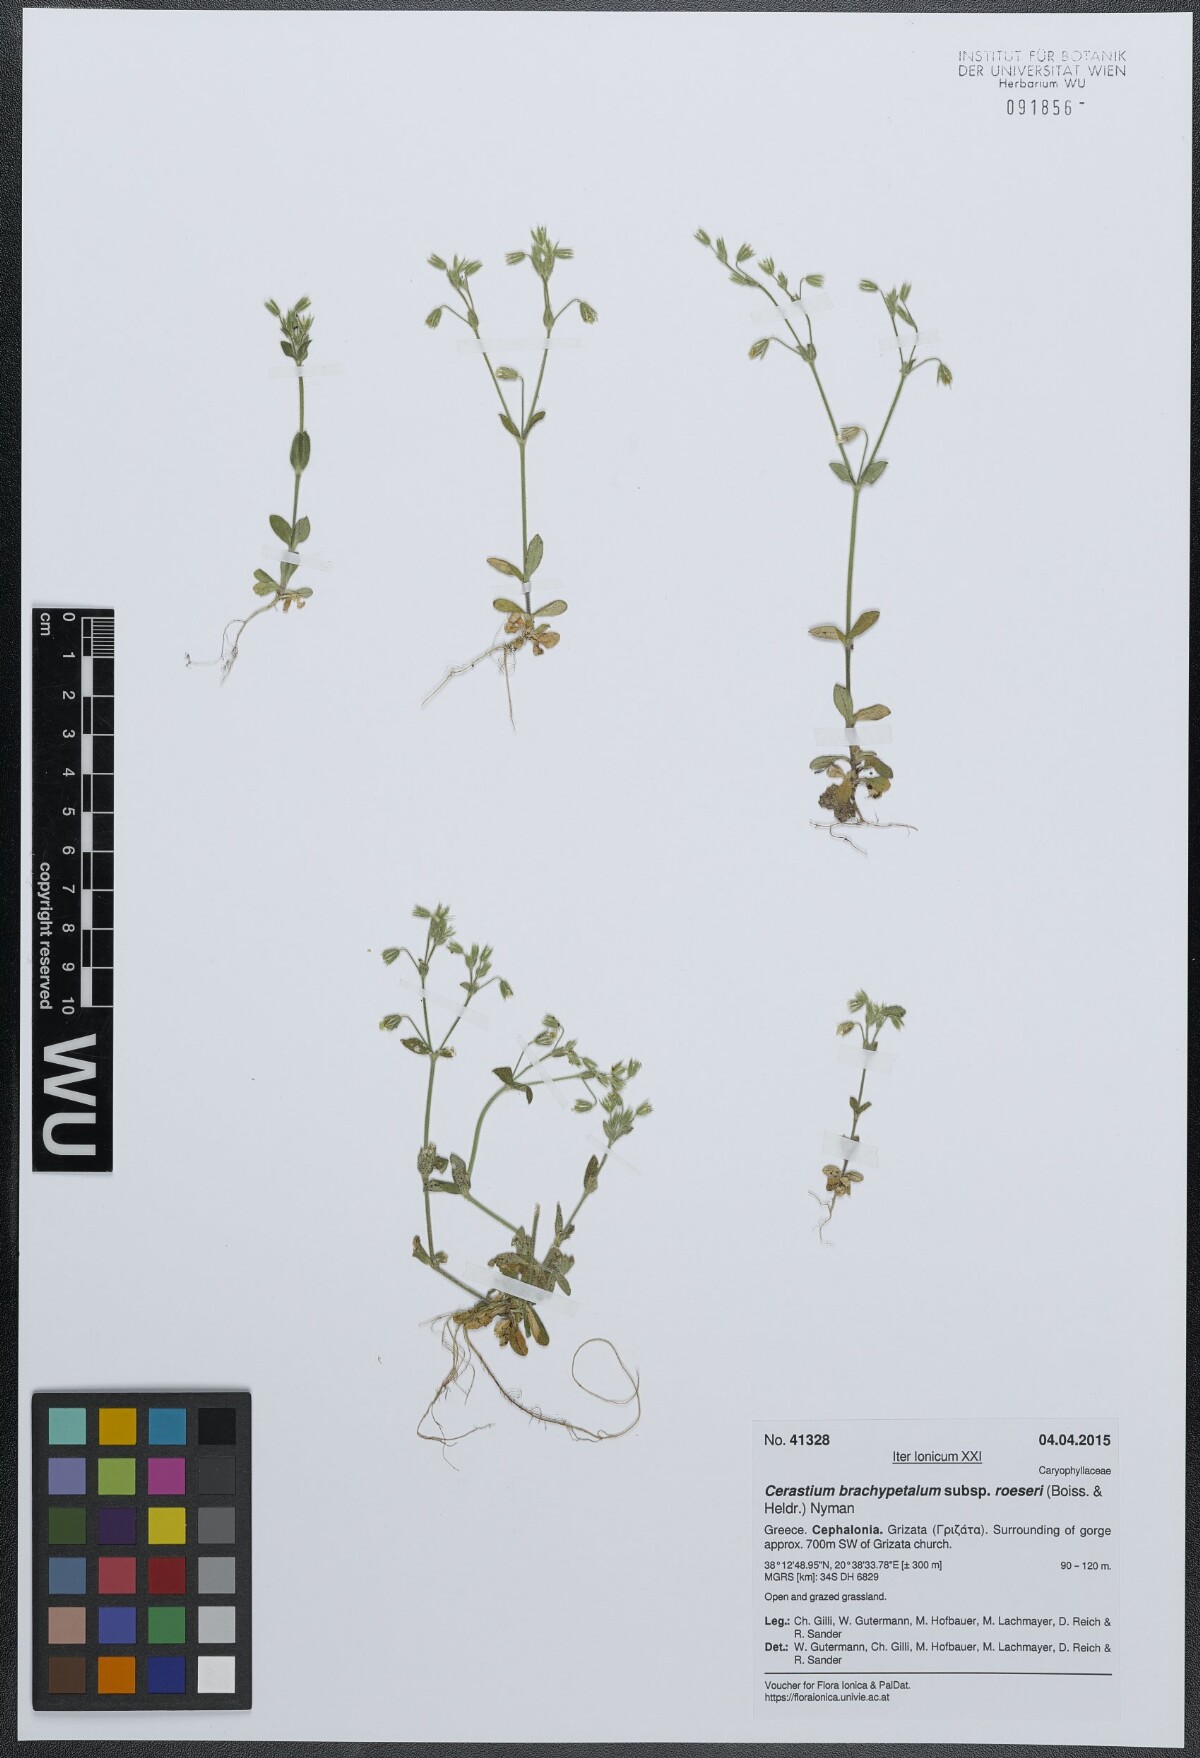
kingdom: Plantae
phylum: Tracheophyta
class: Magnoliopsida
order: Caryophyllales
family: Caryophyllaceae
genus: Cerastium
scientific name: Cerastium brachypetalum
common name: Grey mouse-ear
